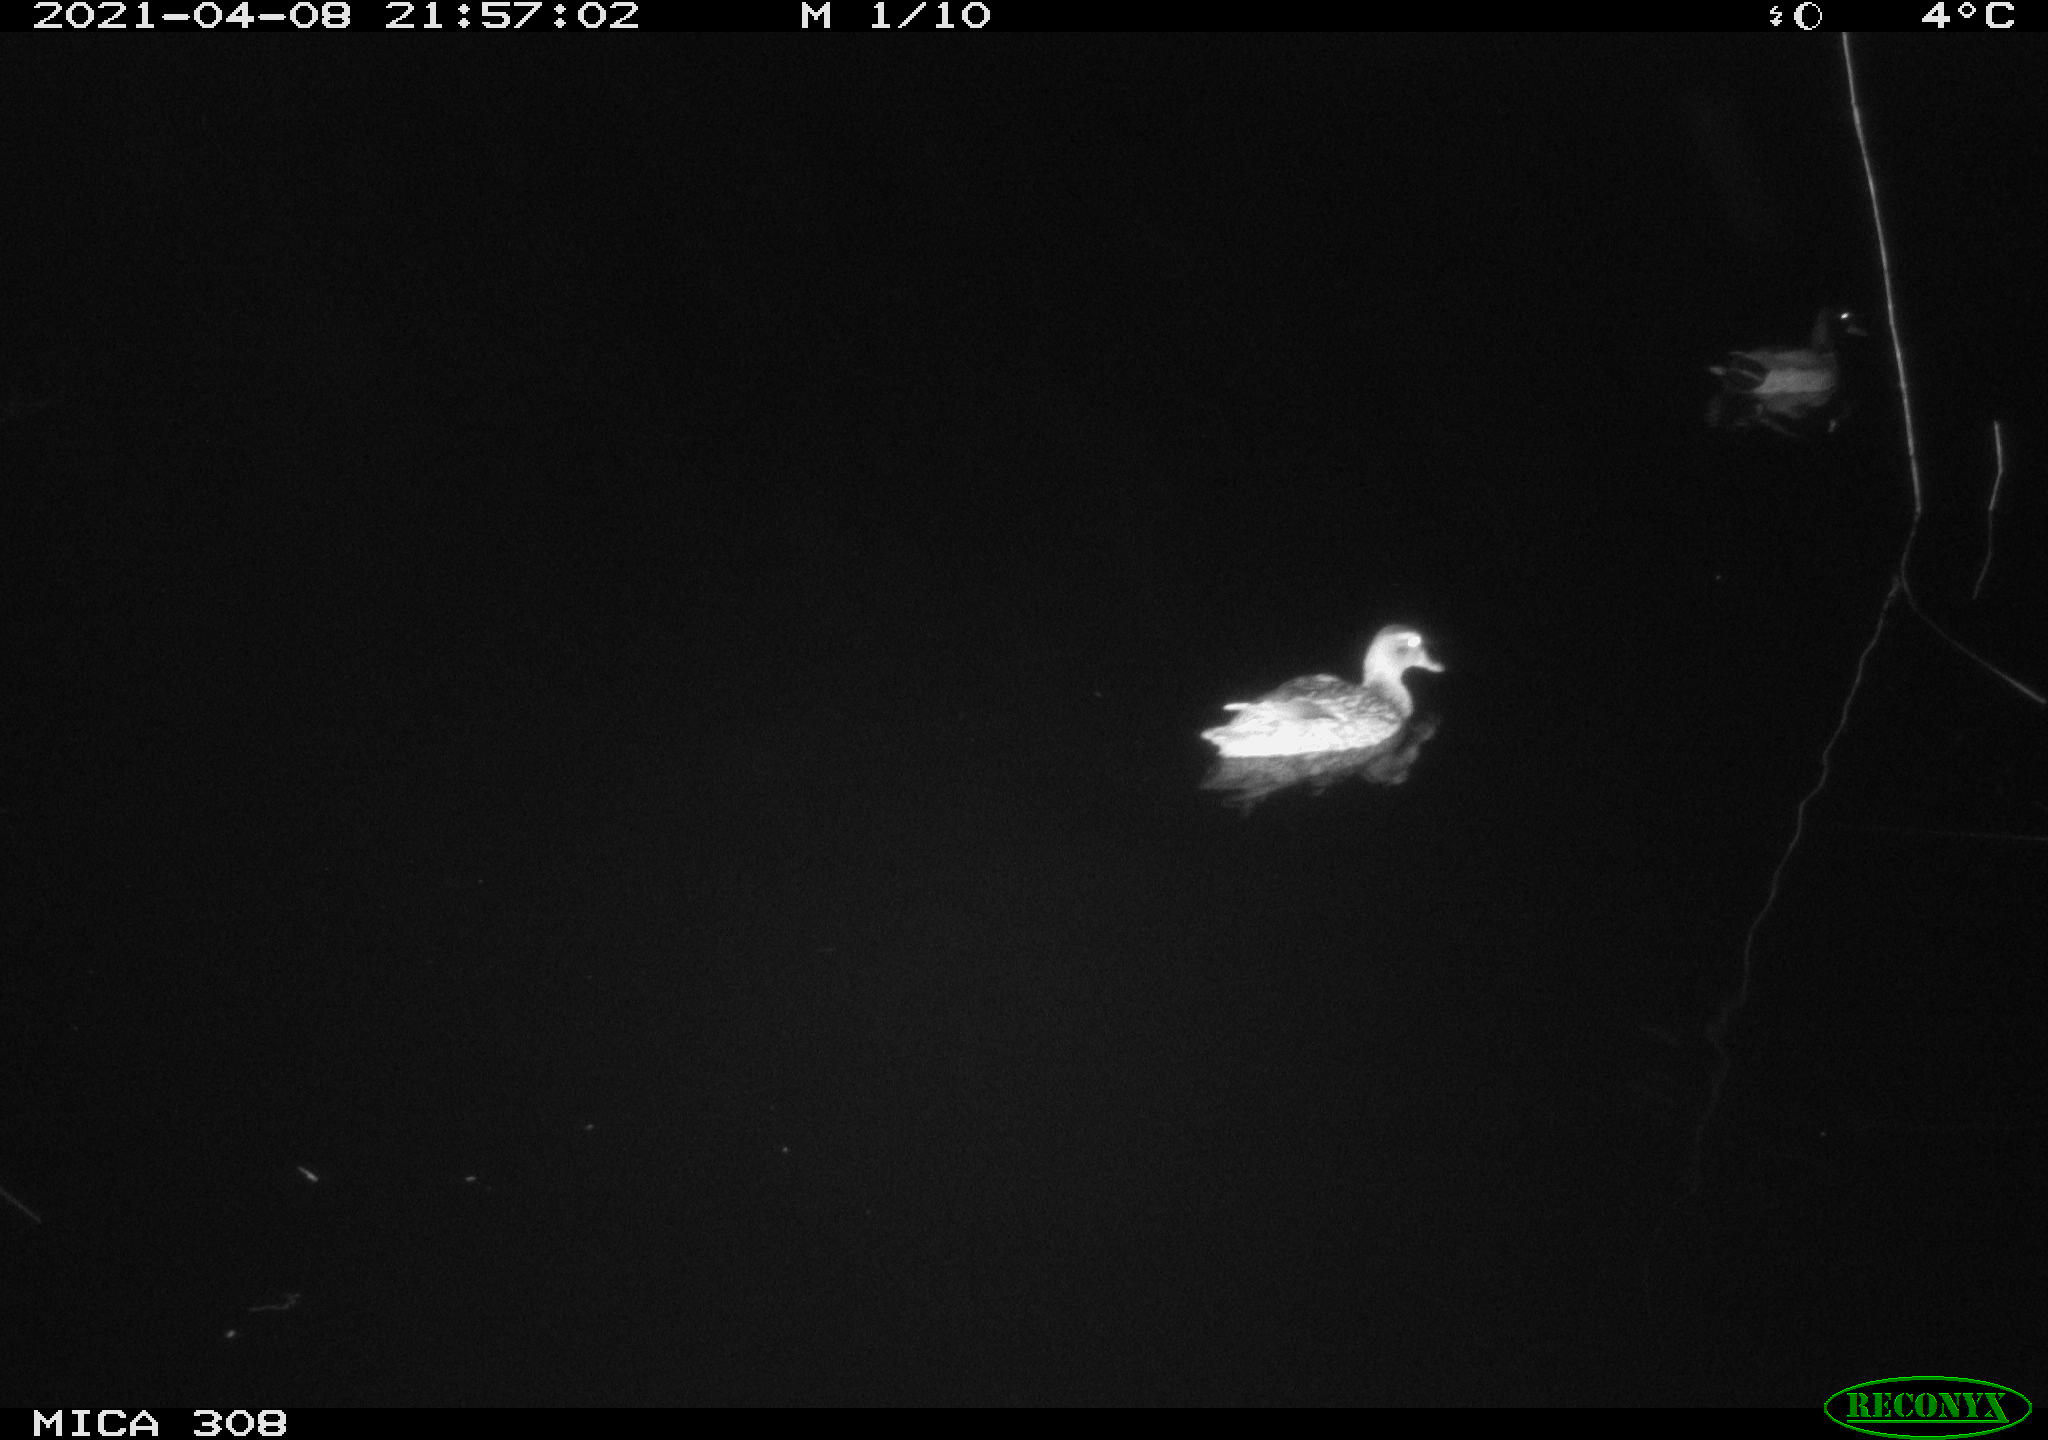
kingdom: Animalia
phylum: Chordata
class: Aves
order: Anseriformes
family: Anatidae
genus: Anas
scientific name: Anas platyrhynchos
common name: Mallard
